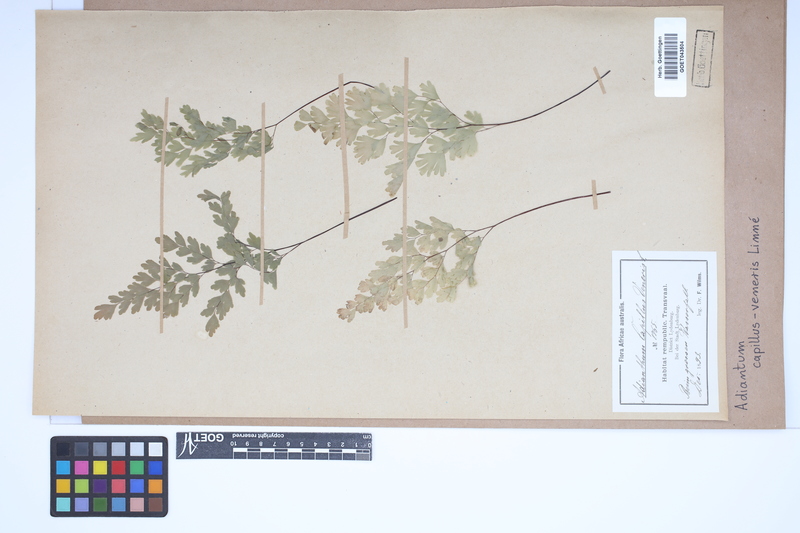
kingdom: Plantae
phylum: Tracheophyta
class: Polypodiopsida
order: Polypodiales
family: Pteridaceae
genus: Adiantum
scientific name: Adiantum capillus-veneris
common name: Maidenhair fern
